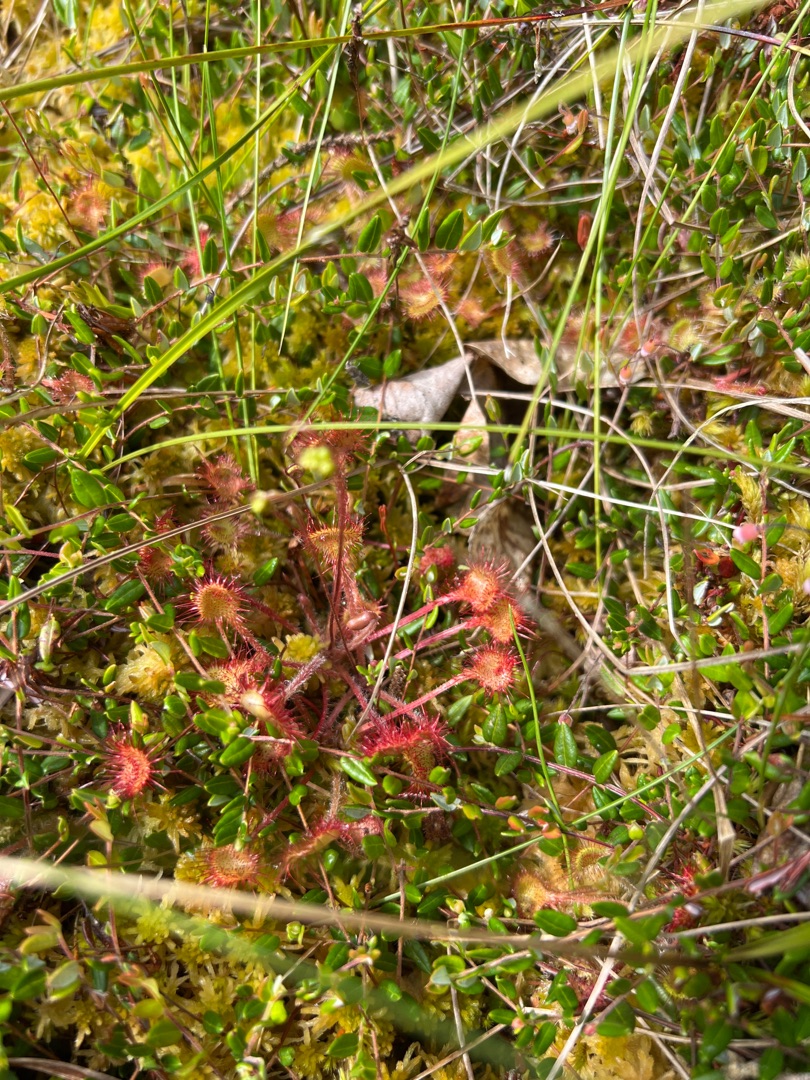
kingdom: Plantae
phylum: Tracheophyta
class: Magnoliopsida
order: Caryophyllales
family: Droseraceae
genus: Drosera
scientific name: Drosera rotundifolia
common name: Rundbladet soldug
